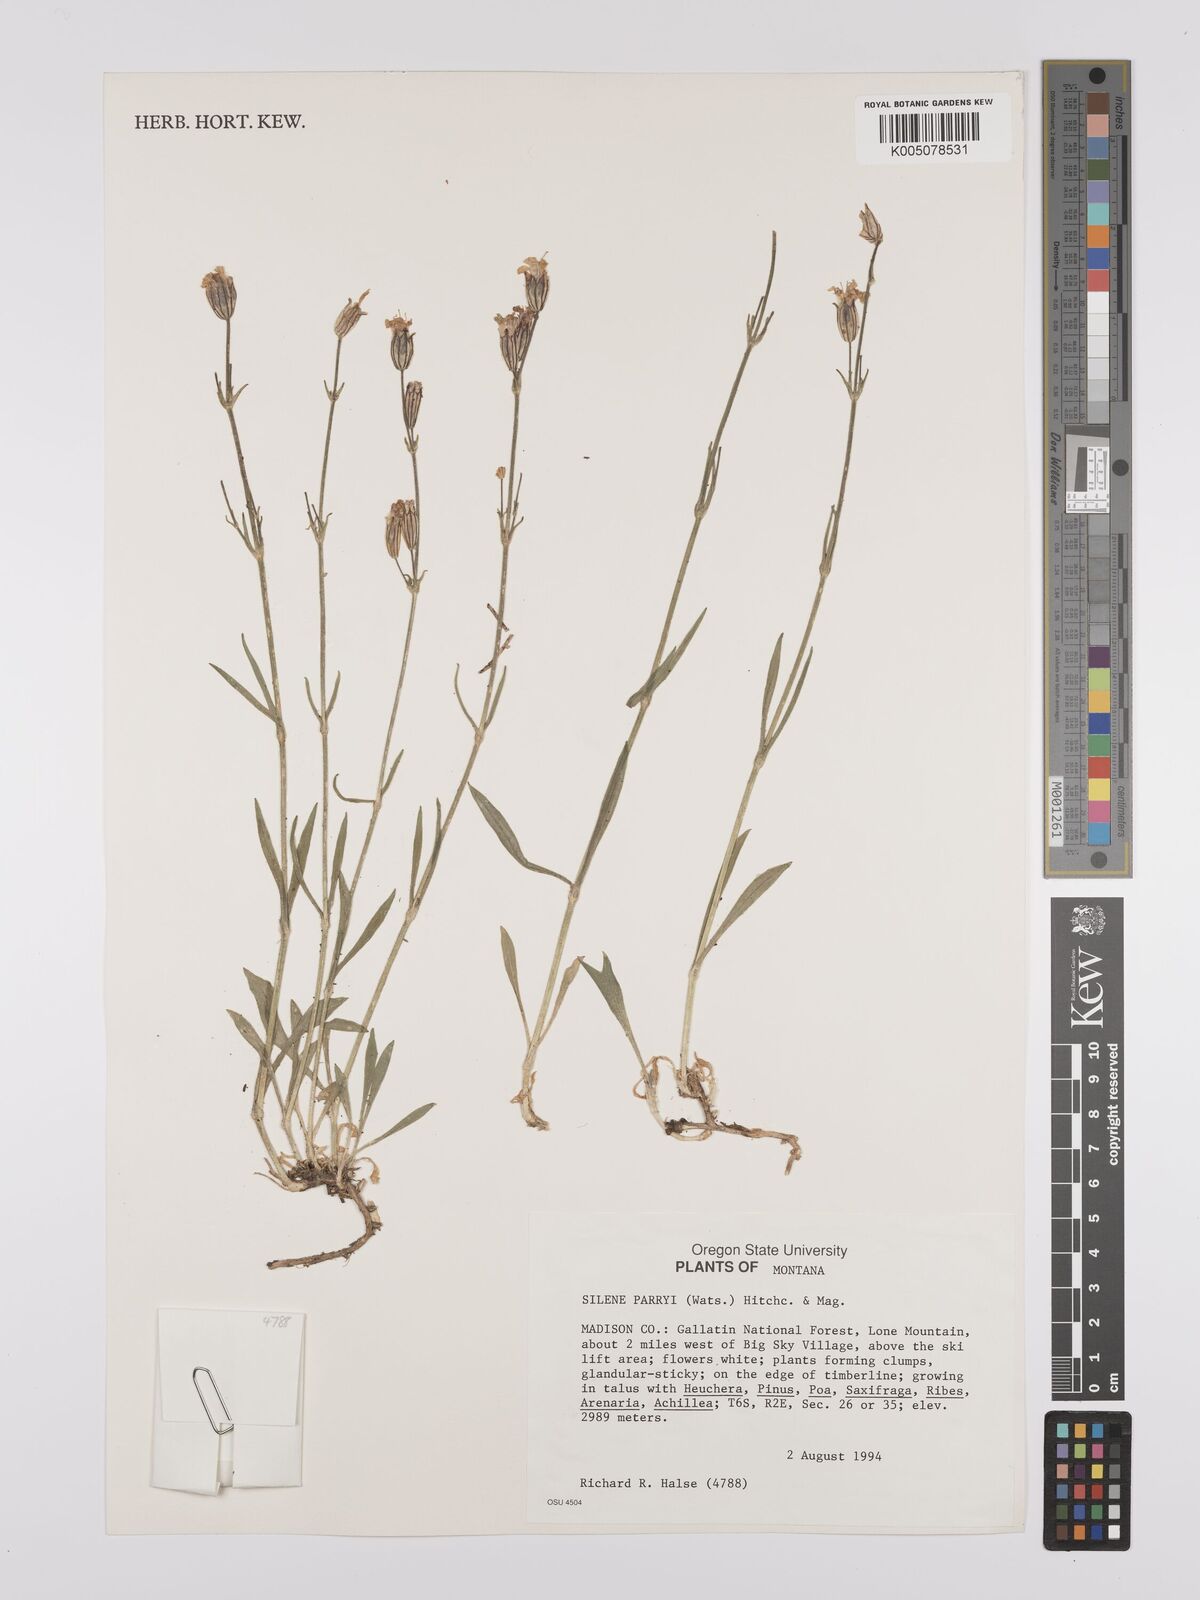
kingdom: Plantae
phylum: Tracheophyta
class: Magnoliopsida
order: Caryophyllales
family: Caryophyllaceae
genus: Silene
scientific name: Silene parryi
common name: Parry's campion
